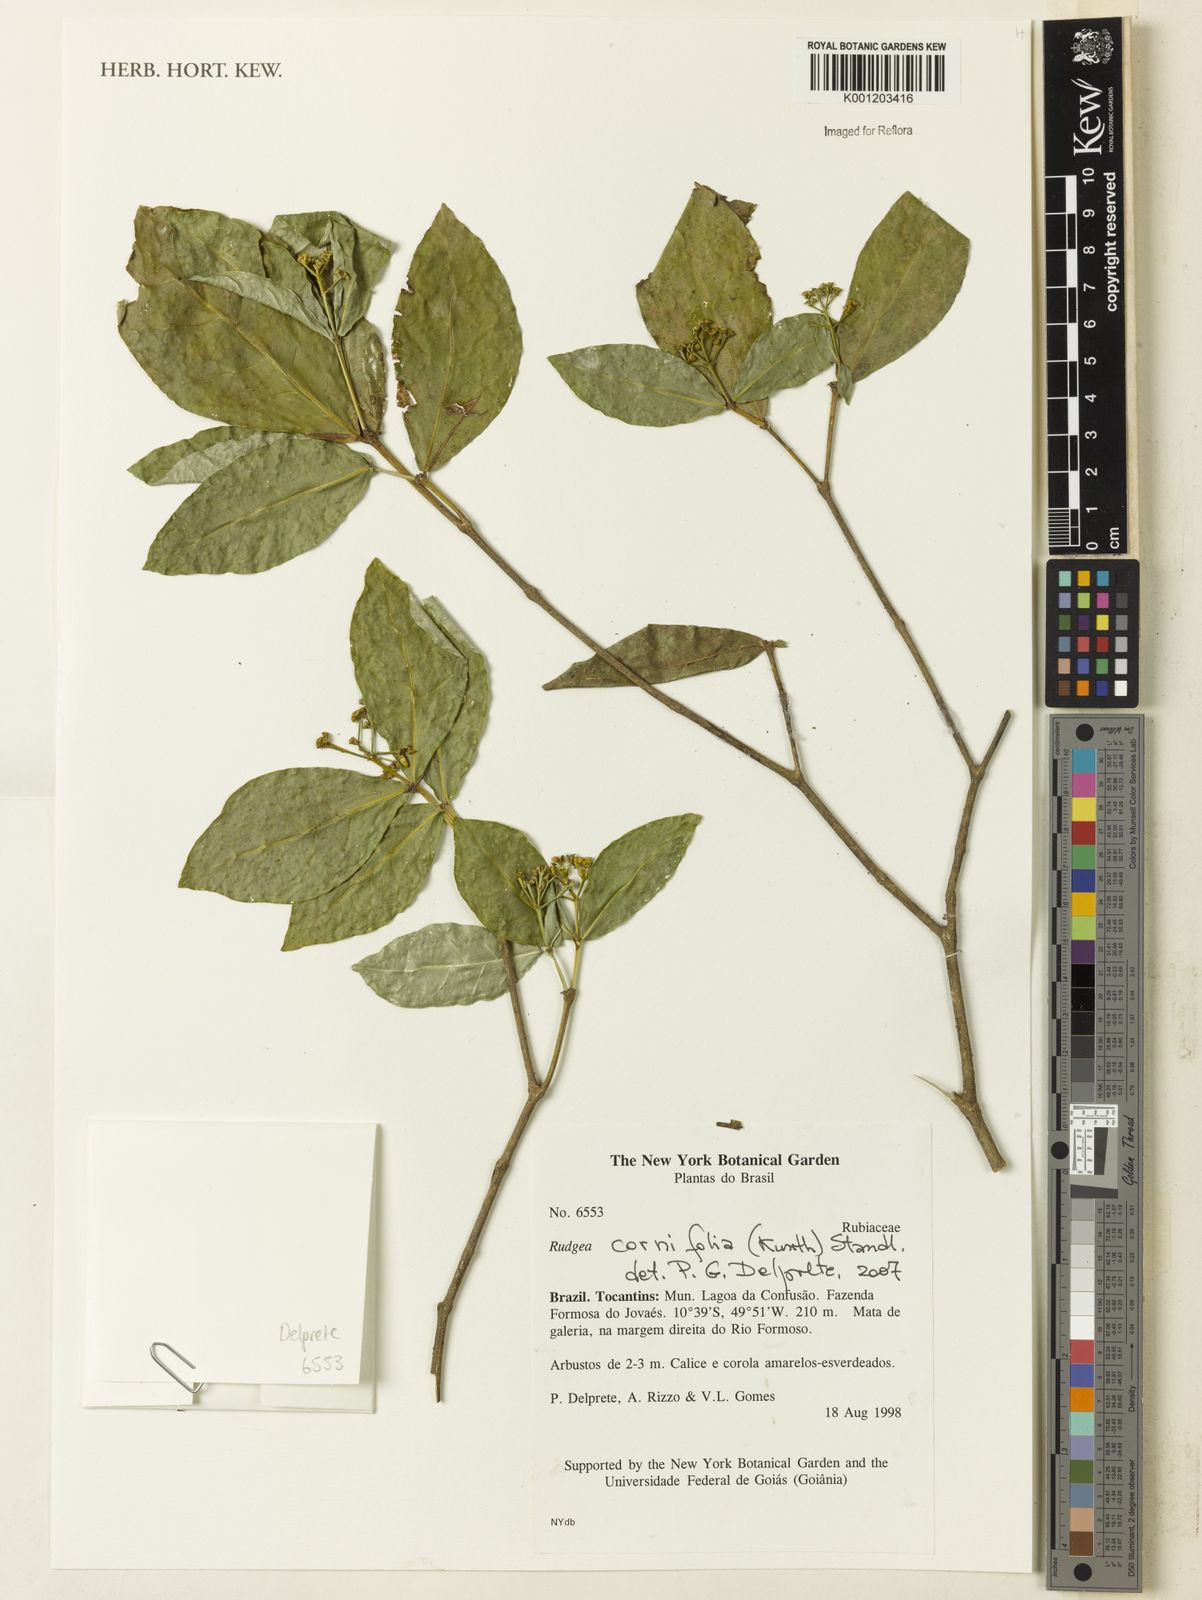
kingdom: Plantae
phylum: Tracheophyta
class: Magnoliopsida
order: Gentianales
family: Rubiaceae
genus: Rudgea
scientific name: Rudgea cornifolia
